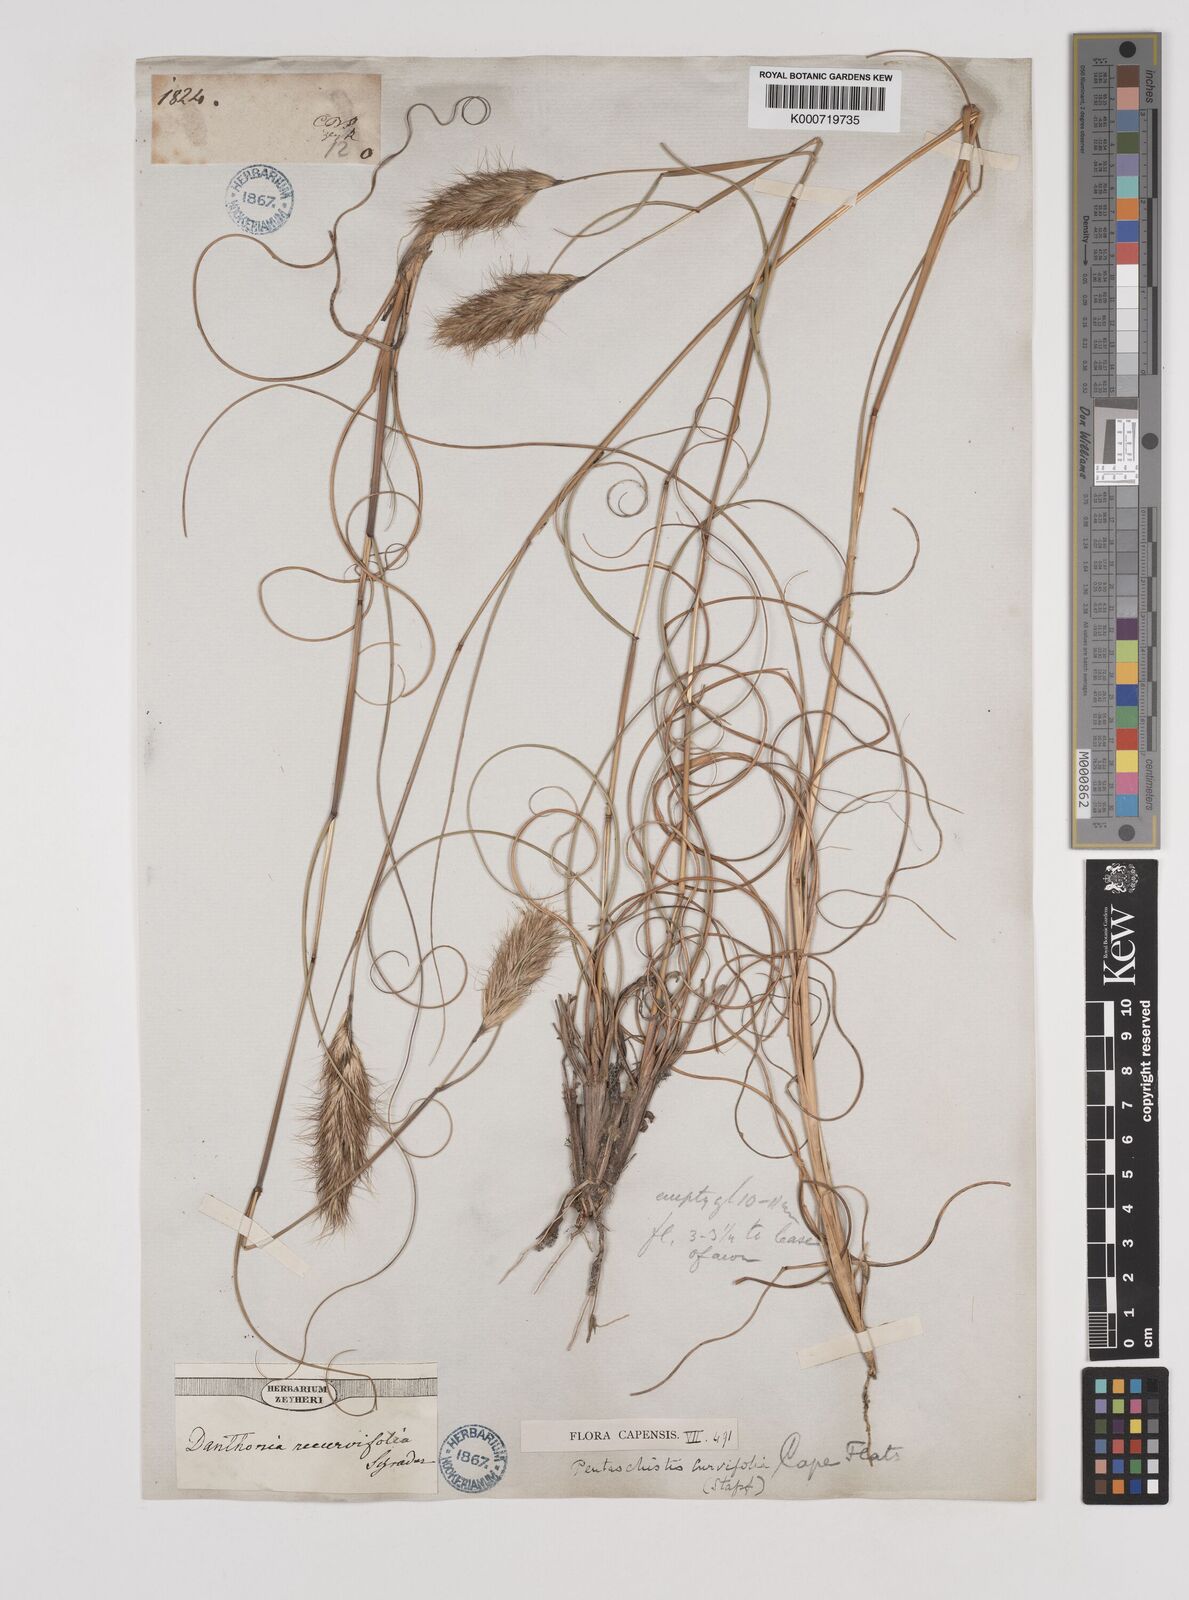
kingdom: Plantae
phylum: Tracheophyta
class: Liliopsida
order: Poales
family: Poaceae
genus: Pentameris
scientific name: Pentameris curvifolia
